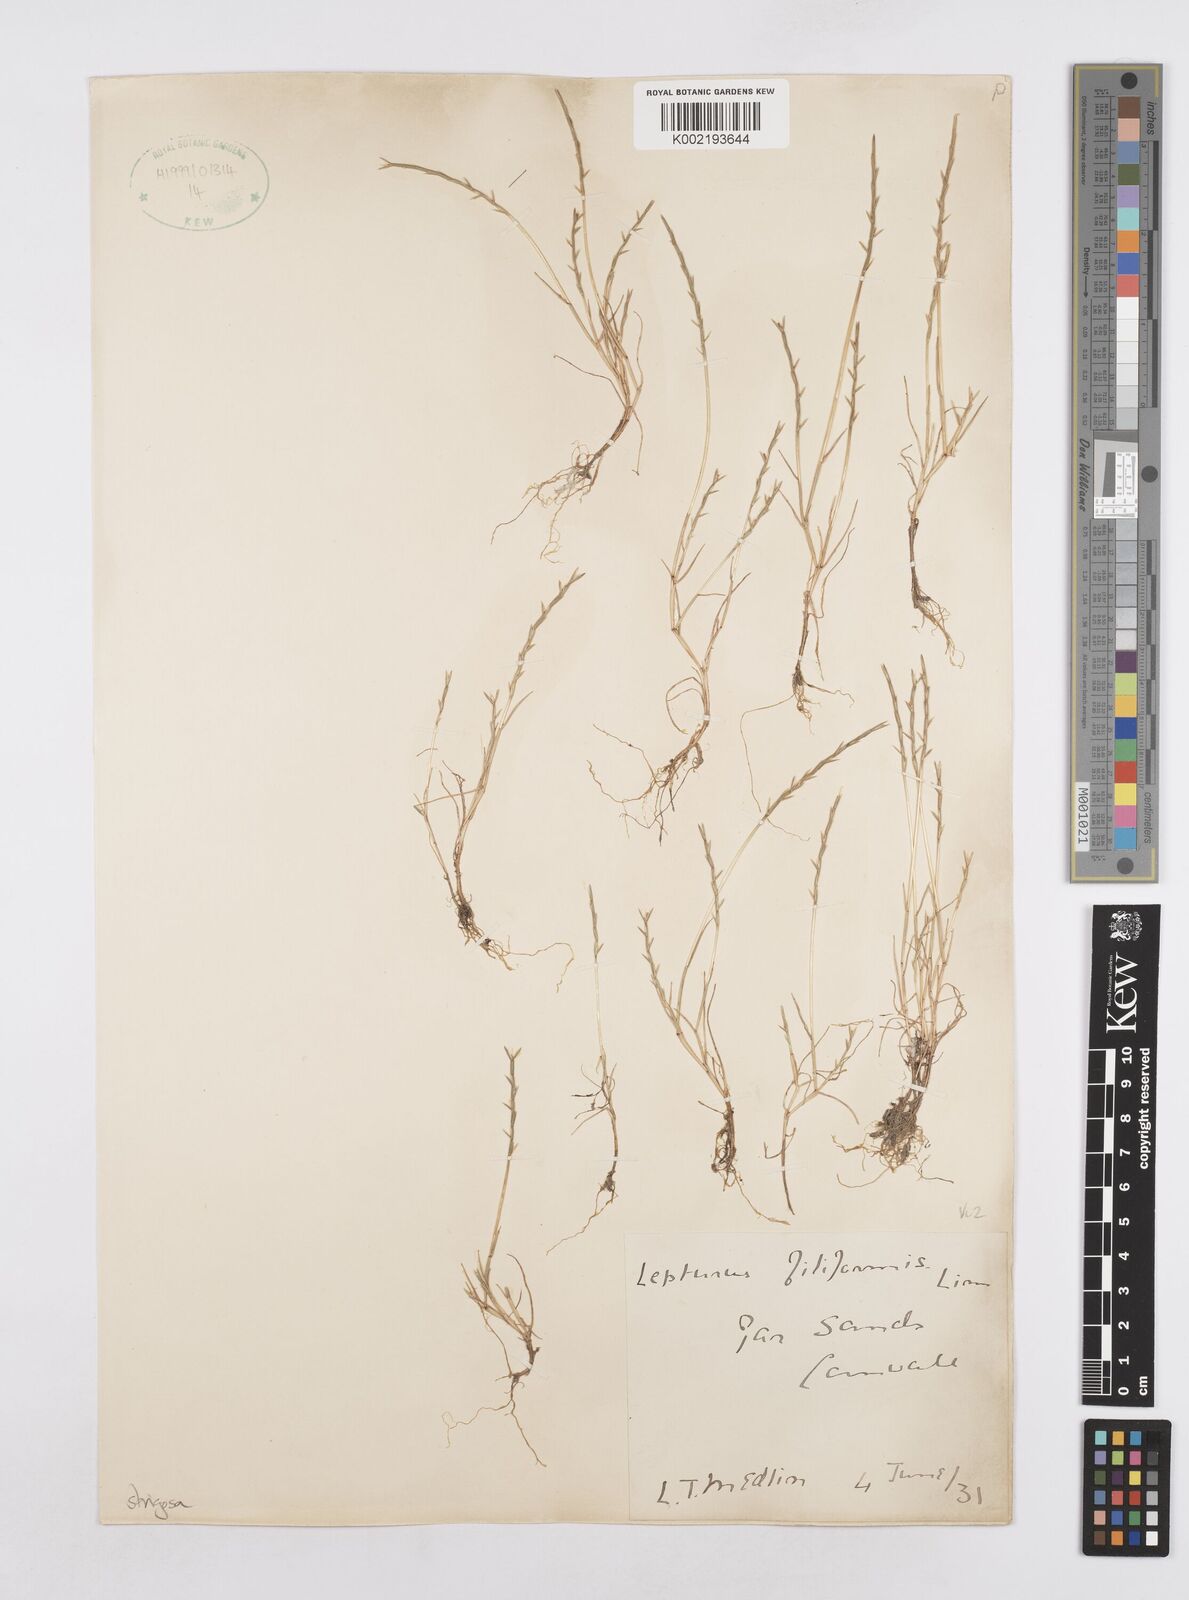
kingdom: Plantae
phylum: Tracheophyta
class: Liliopsida
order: Poales
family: Poaceae
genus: Parapholis
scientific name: Parapholis strigosa
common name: Hard-grass
